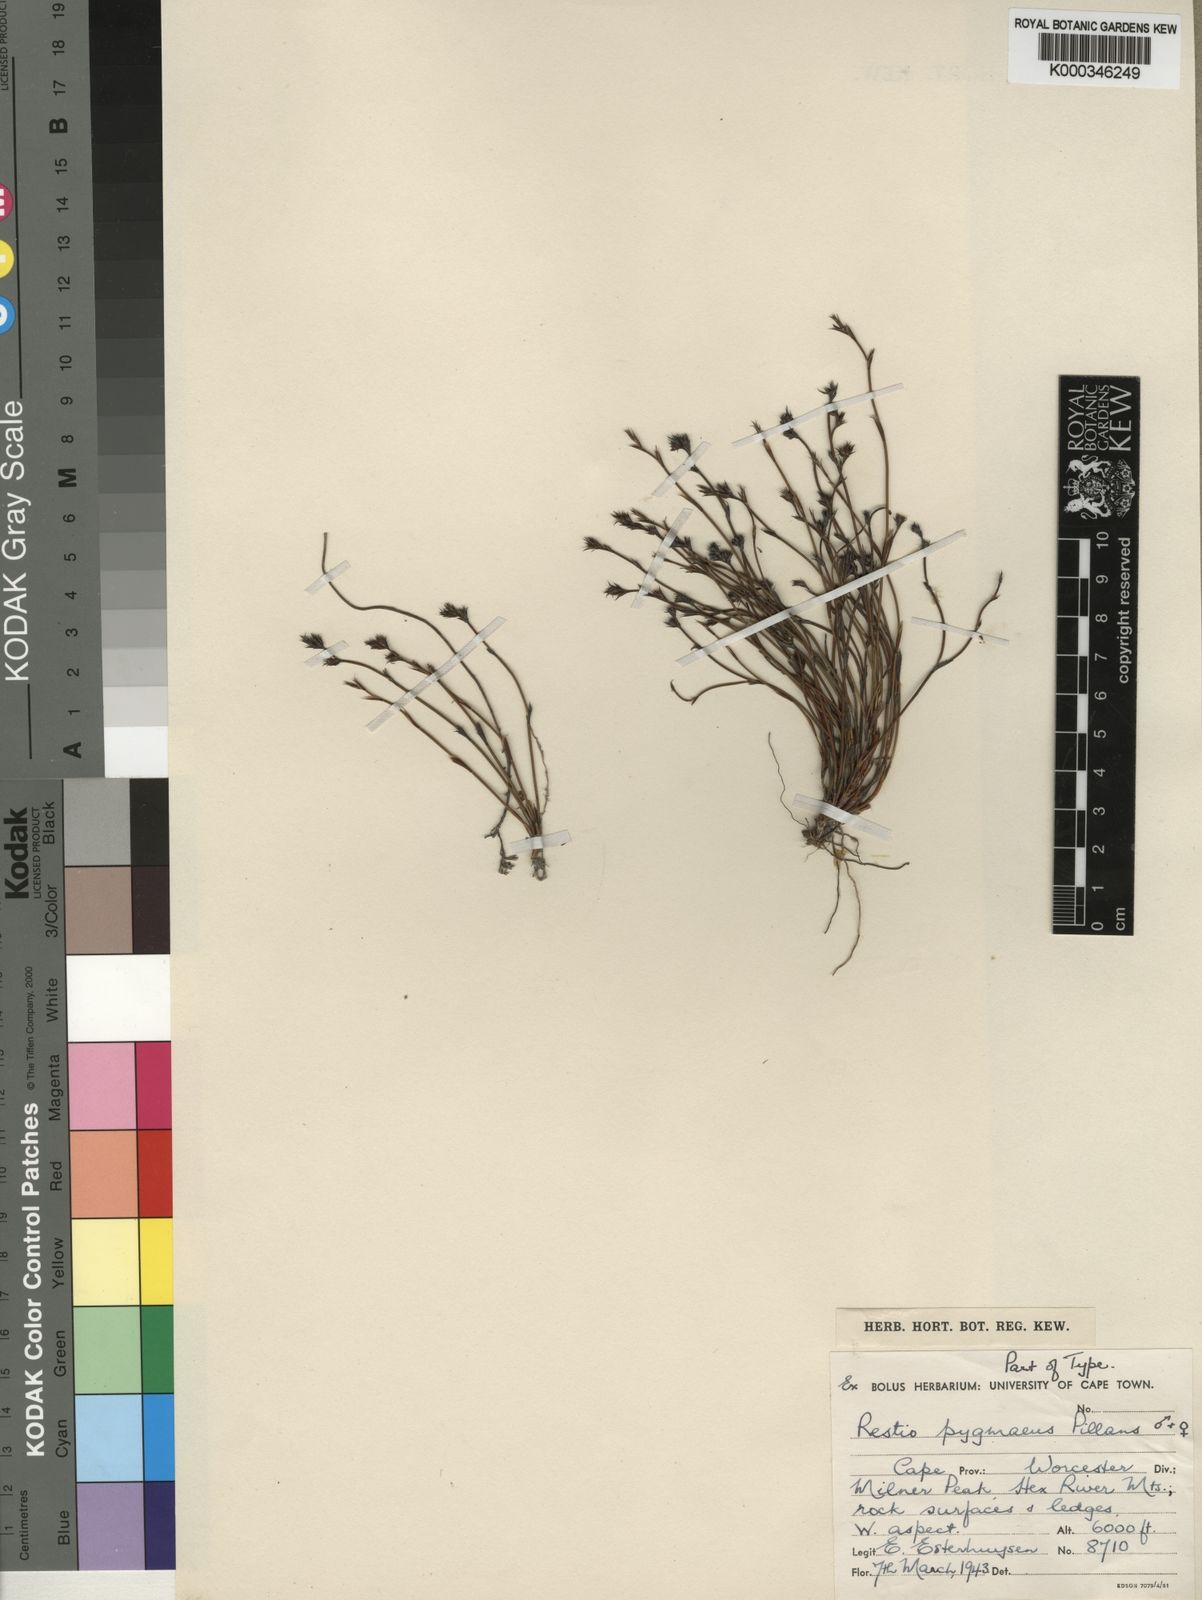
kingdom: Plantae
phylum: Tracheophyta
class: Liliopsida
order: Poales
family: Restionaceae
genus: Restio
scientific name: Restio pygmaeus
